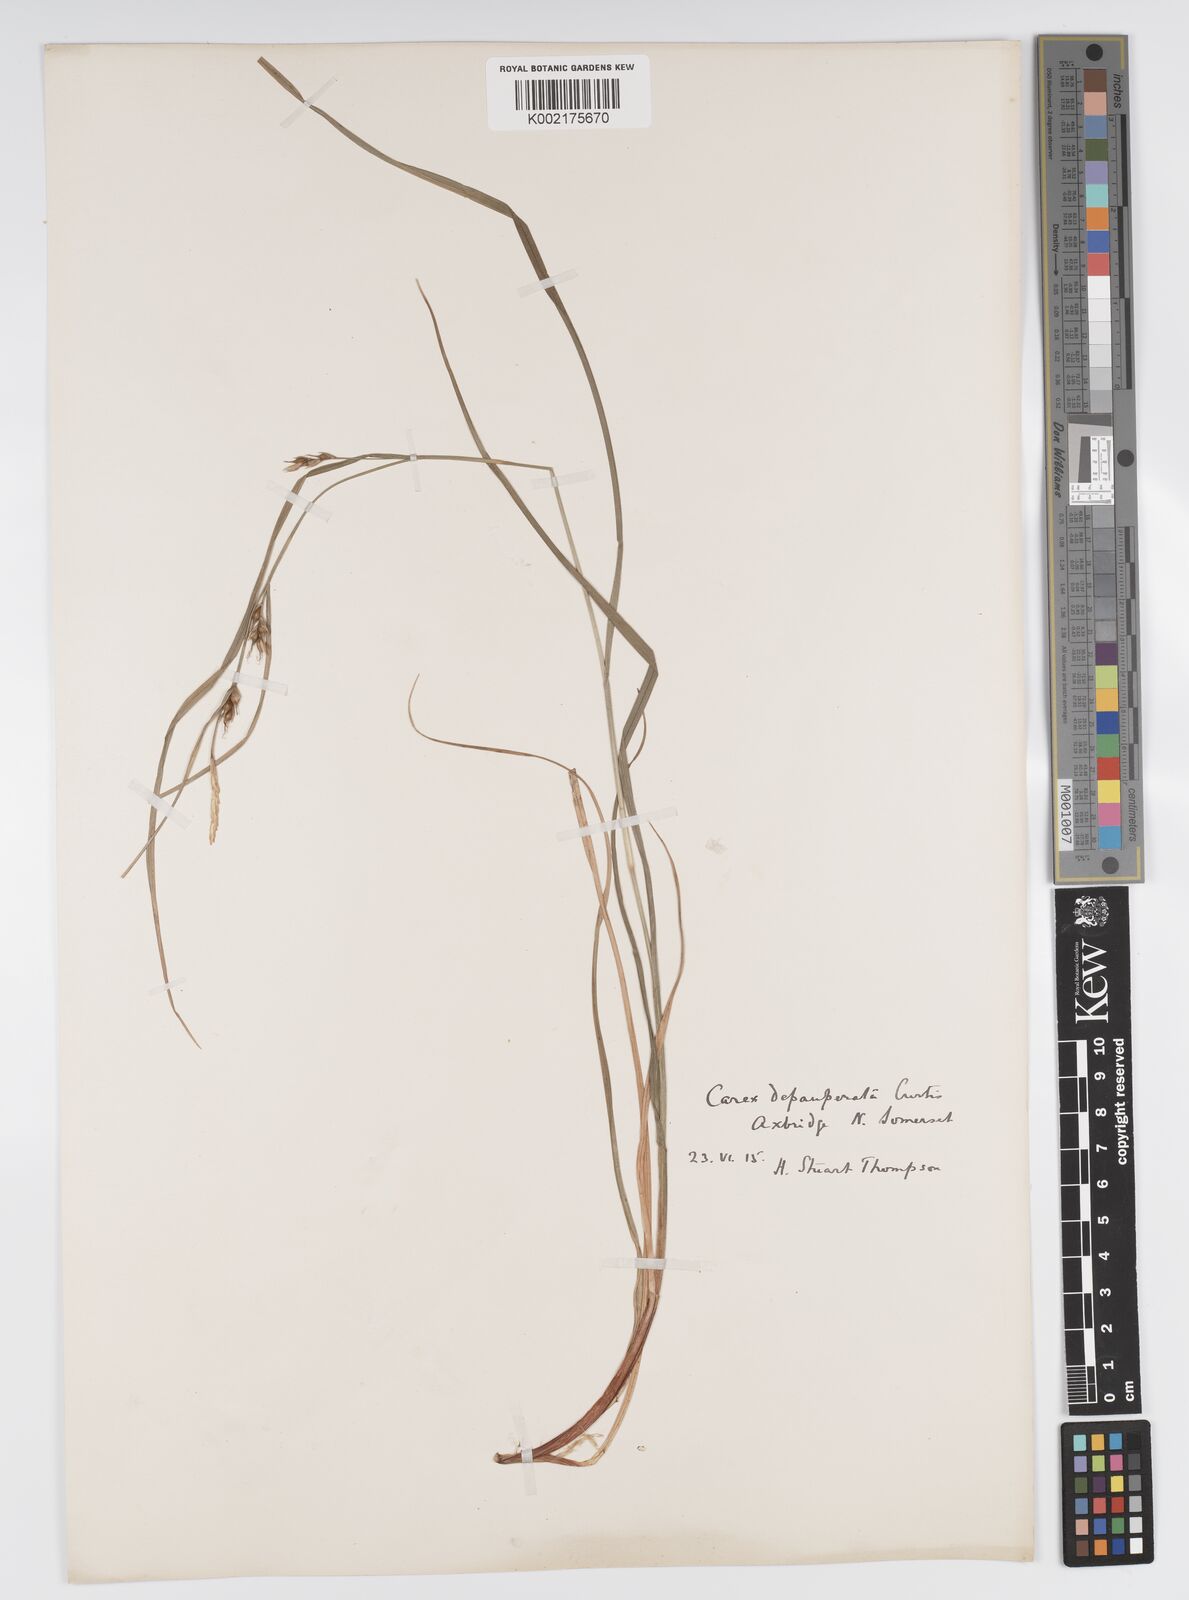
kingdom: Plantae
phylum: Tracheophyta
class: Liliopsida
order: Poales
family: Cyperaceae
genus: Carex
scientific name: Carex depauperata
